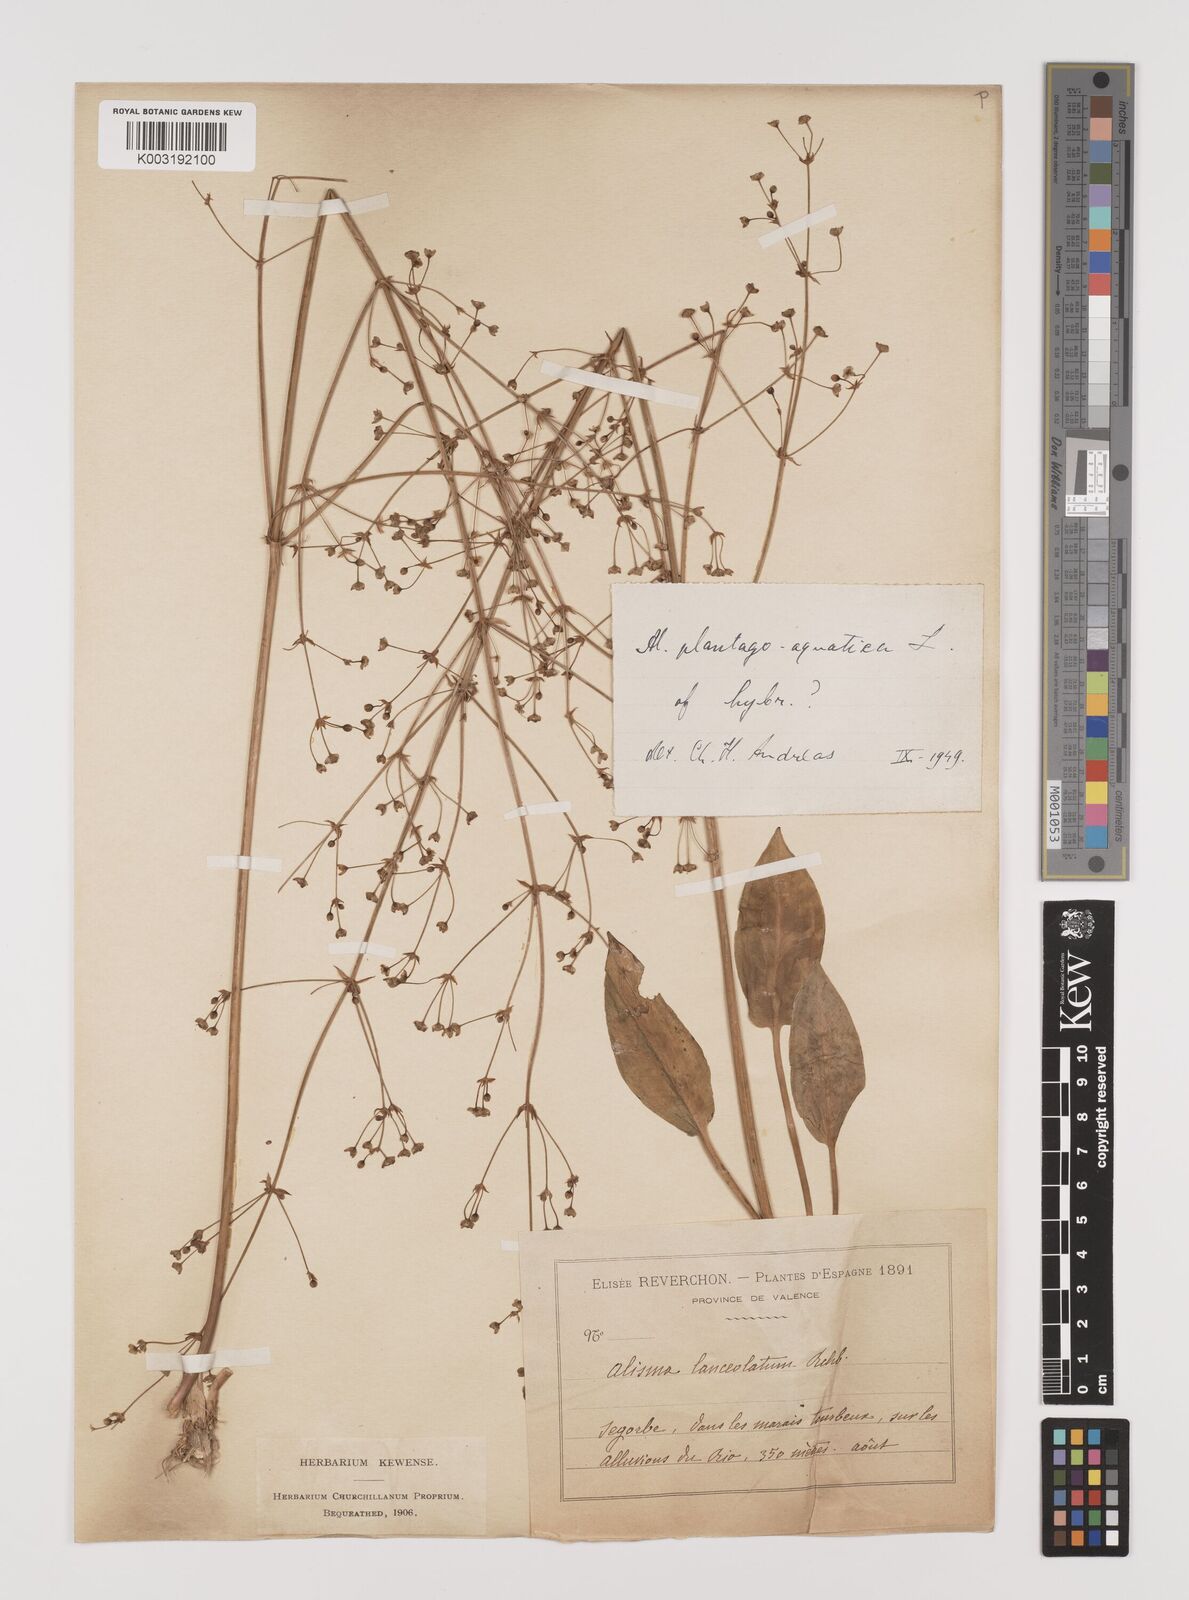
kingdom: Plantae
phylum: Tracheophyta
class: Liliopsida
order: Alismatales
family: Alismataceae
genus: Alisma
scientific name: Alisma plantago-aquatica
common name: Water-plantain
